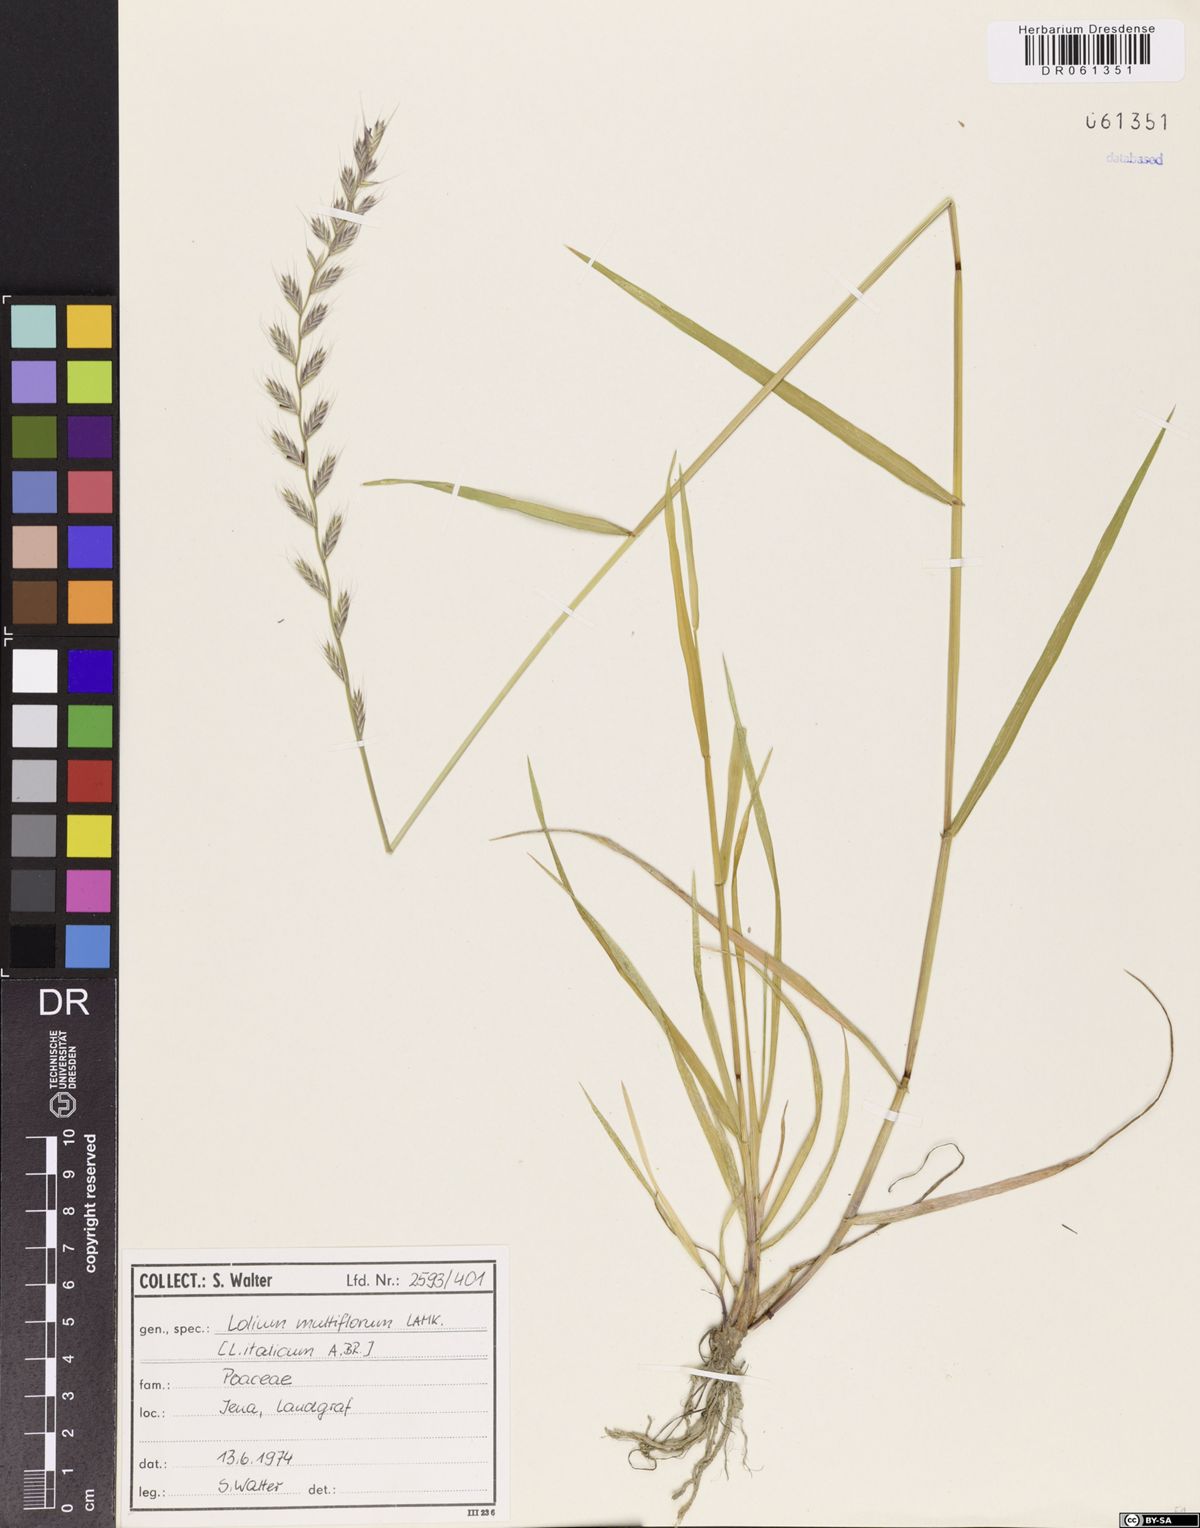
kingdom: Plantae
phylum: Tracheophyta
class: Liliopsida
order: Poales
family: Poaceae
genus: Lolium
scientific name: Lolium multiflorum
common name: Annual ryegrass
